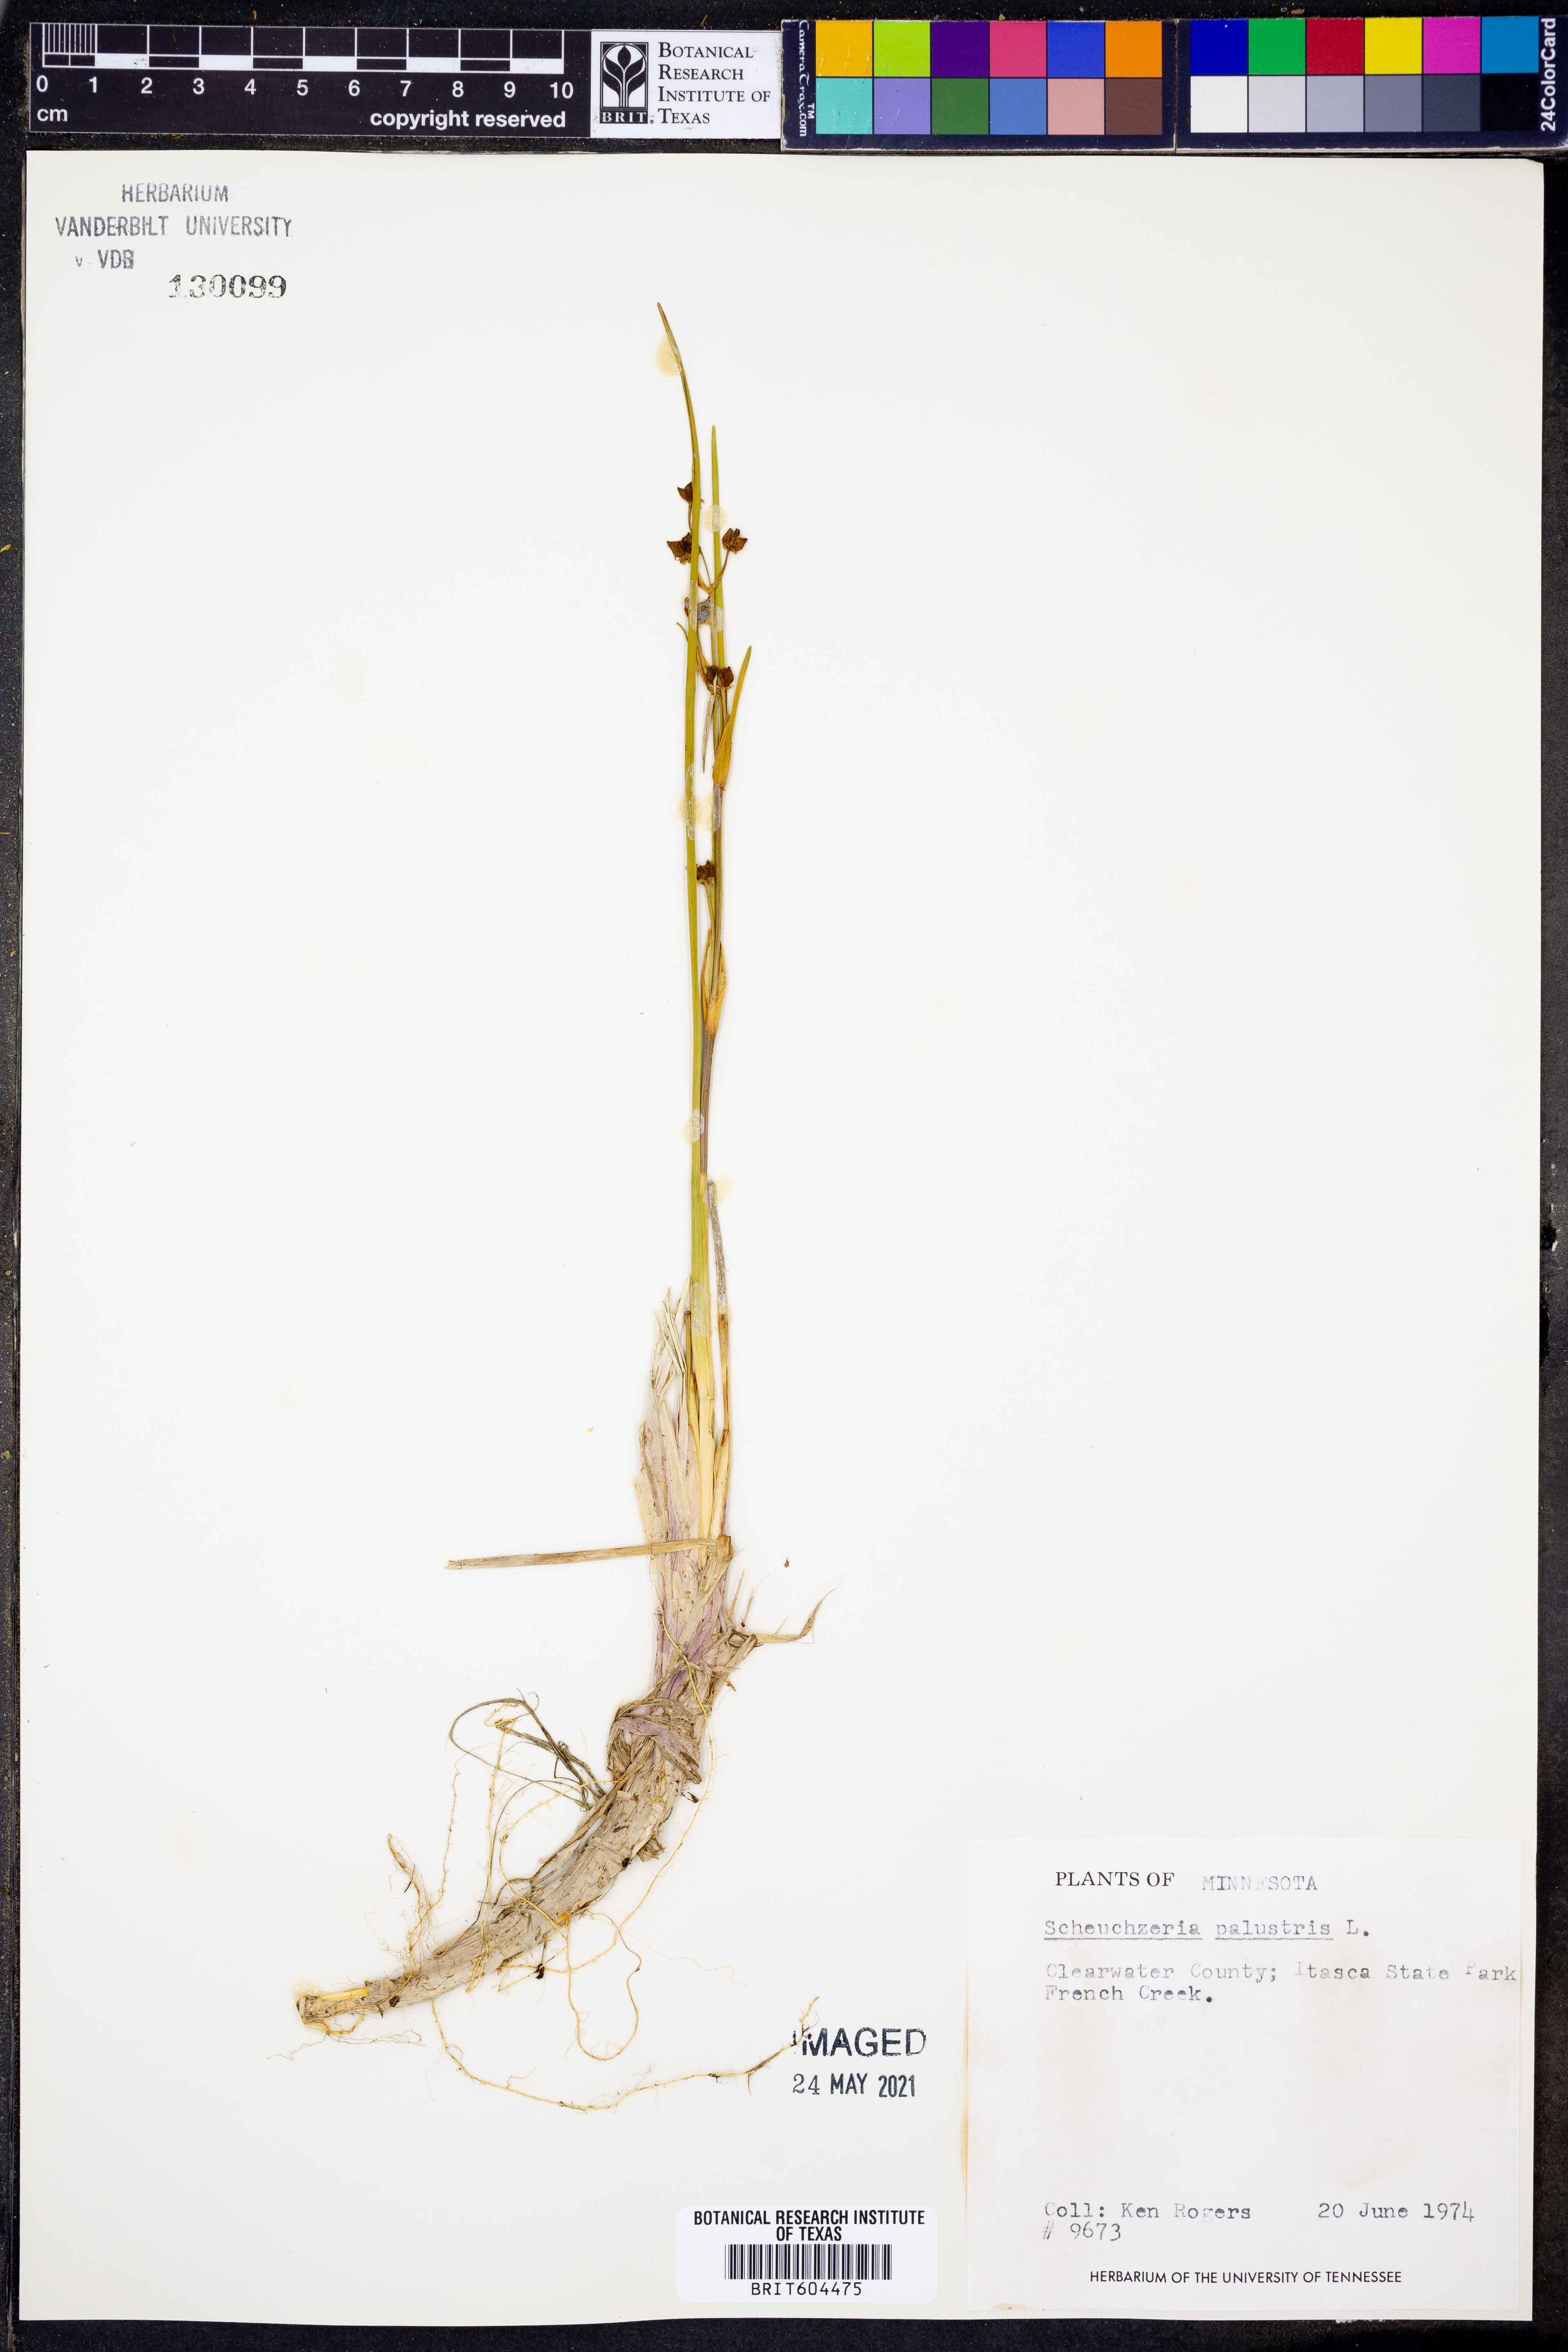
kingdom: Plantae
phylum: Tracheophyta
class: Liliopsida
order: Alismatales
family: Scheuchzeriaceae
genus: Scheuchzeria
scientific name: Scheuchzeria palustris
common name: Rannoch-rush
